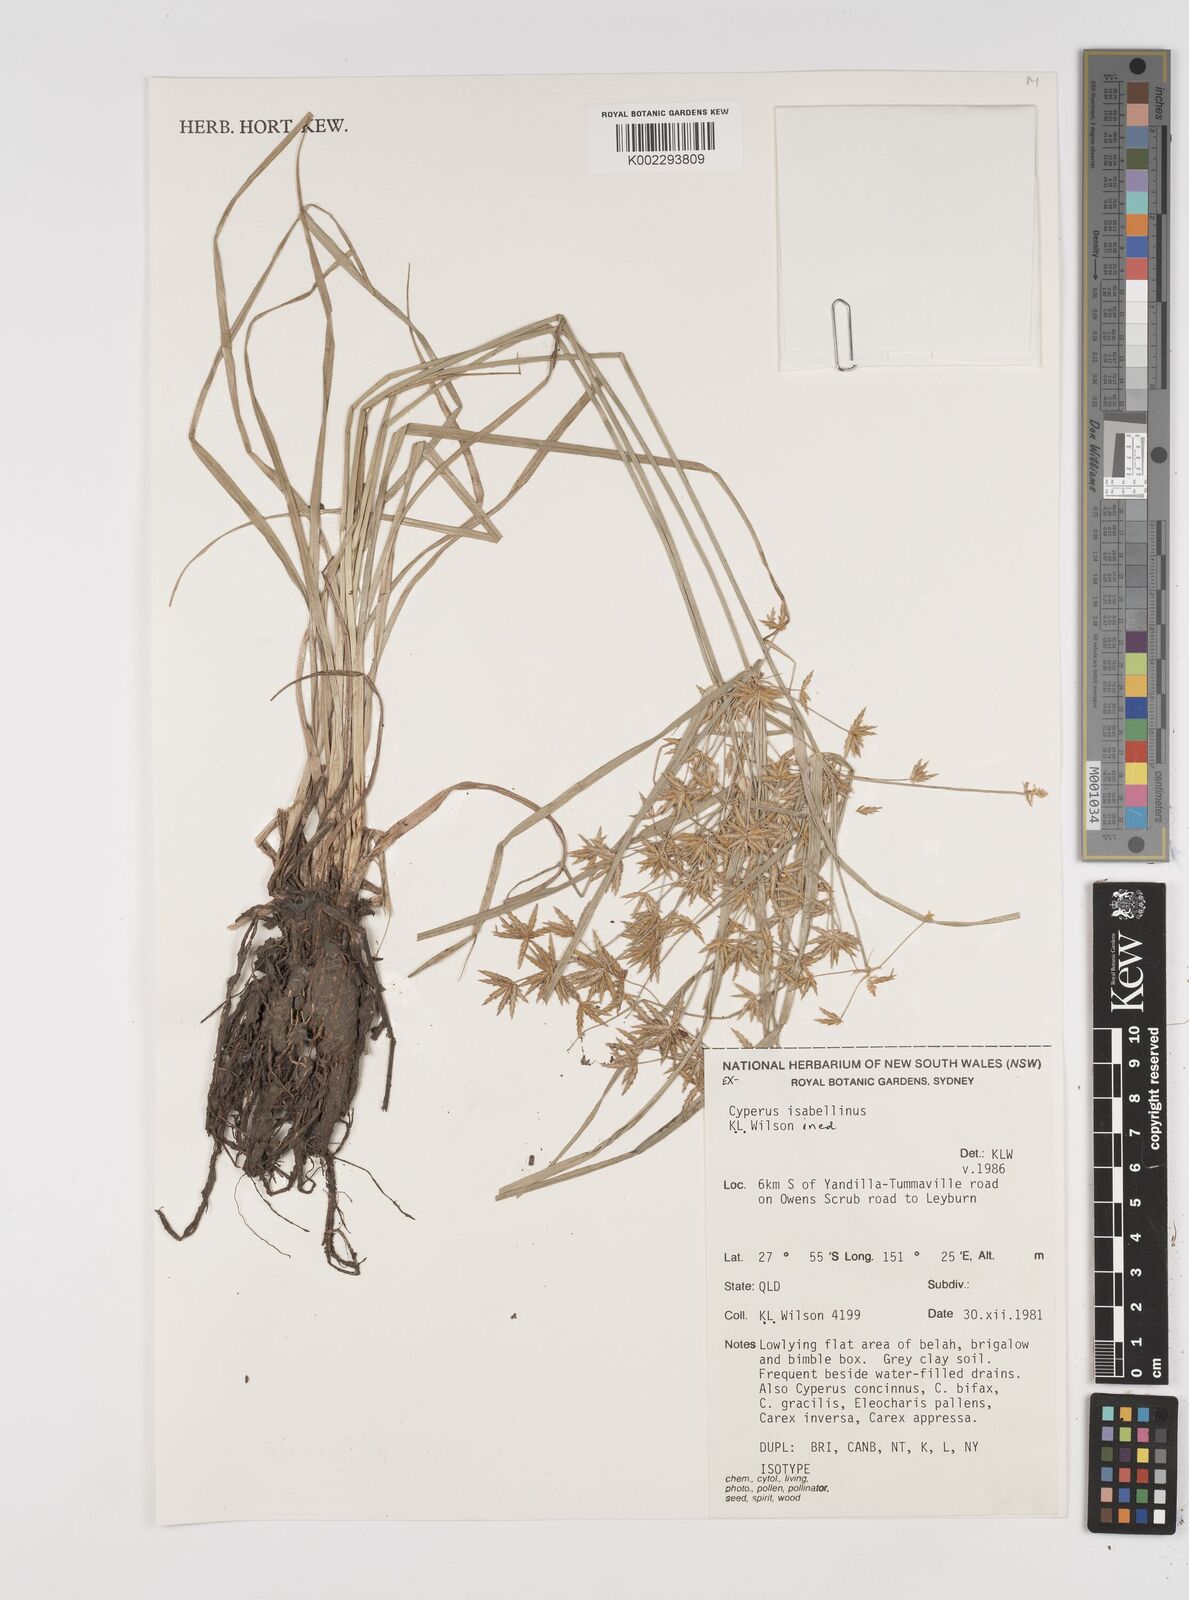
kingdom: Plantae
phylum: Tracheophyta
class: Liliopsida
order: Poales
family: Cyperaceae
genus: Cyperus
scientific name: Cyperus isabellinus
